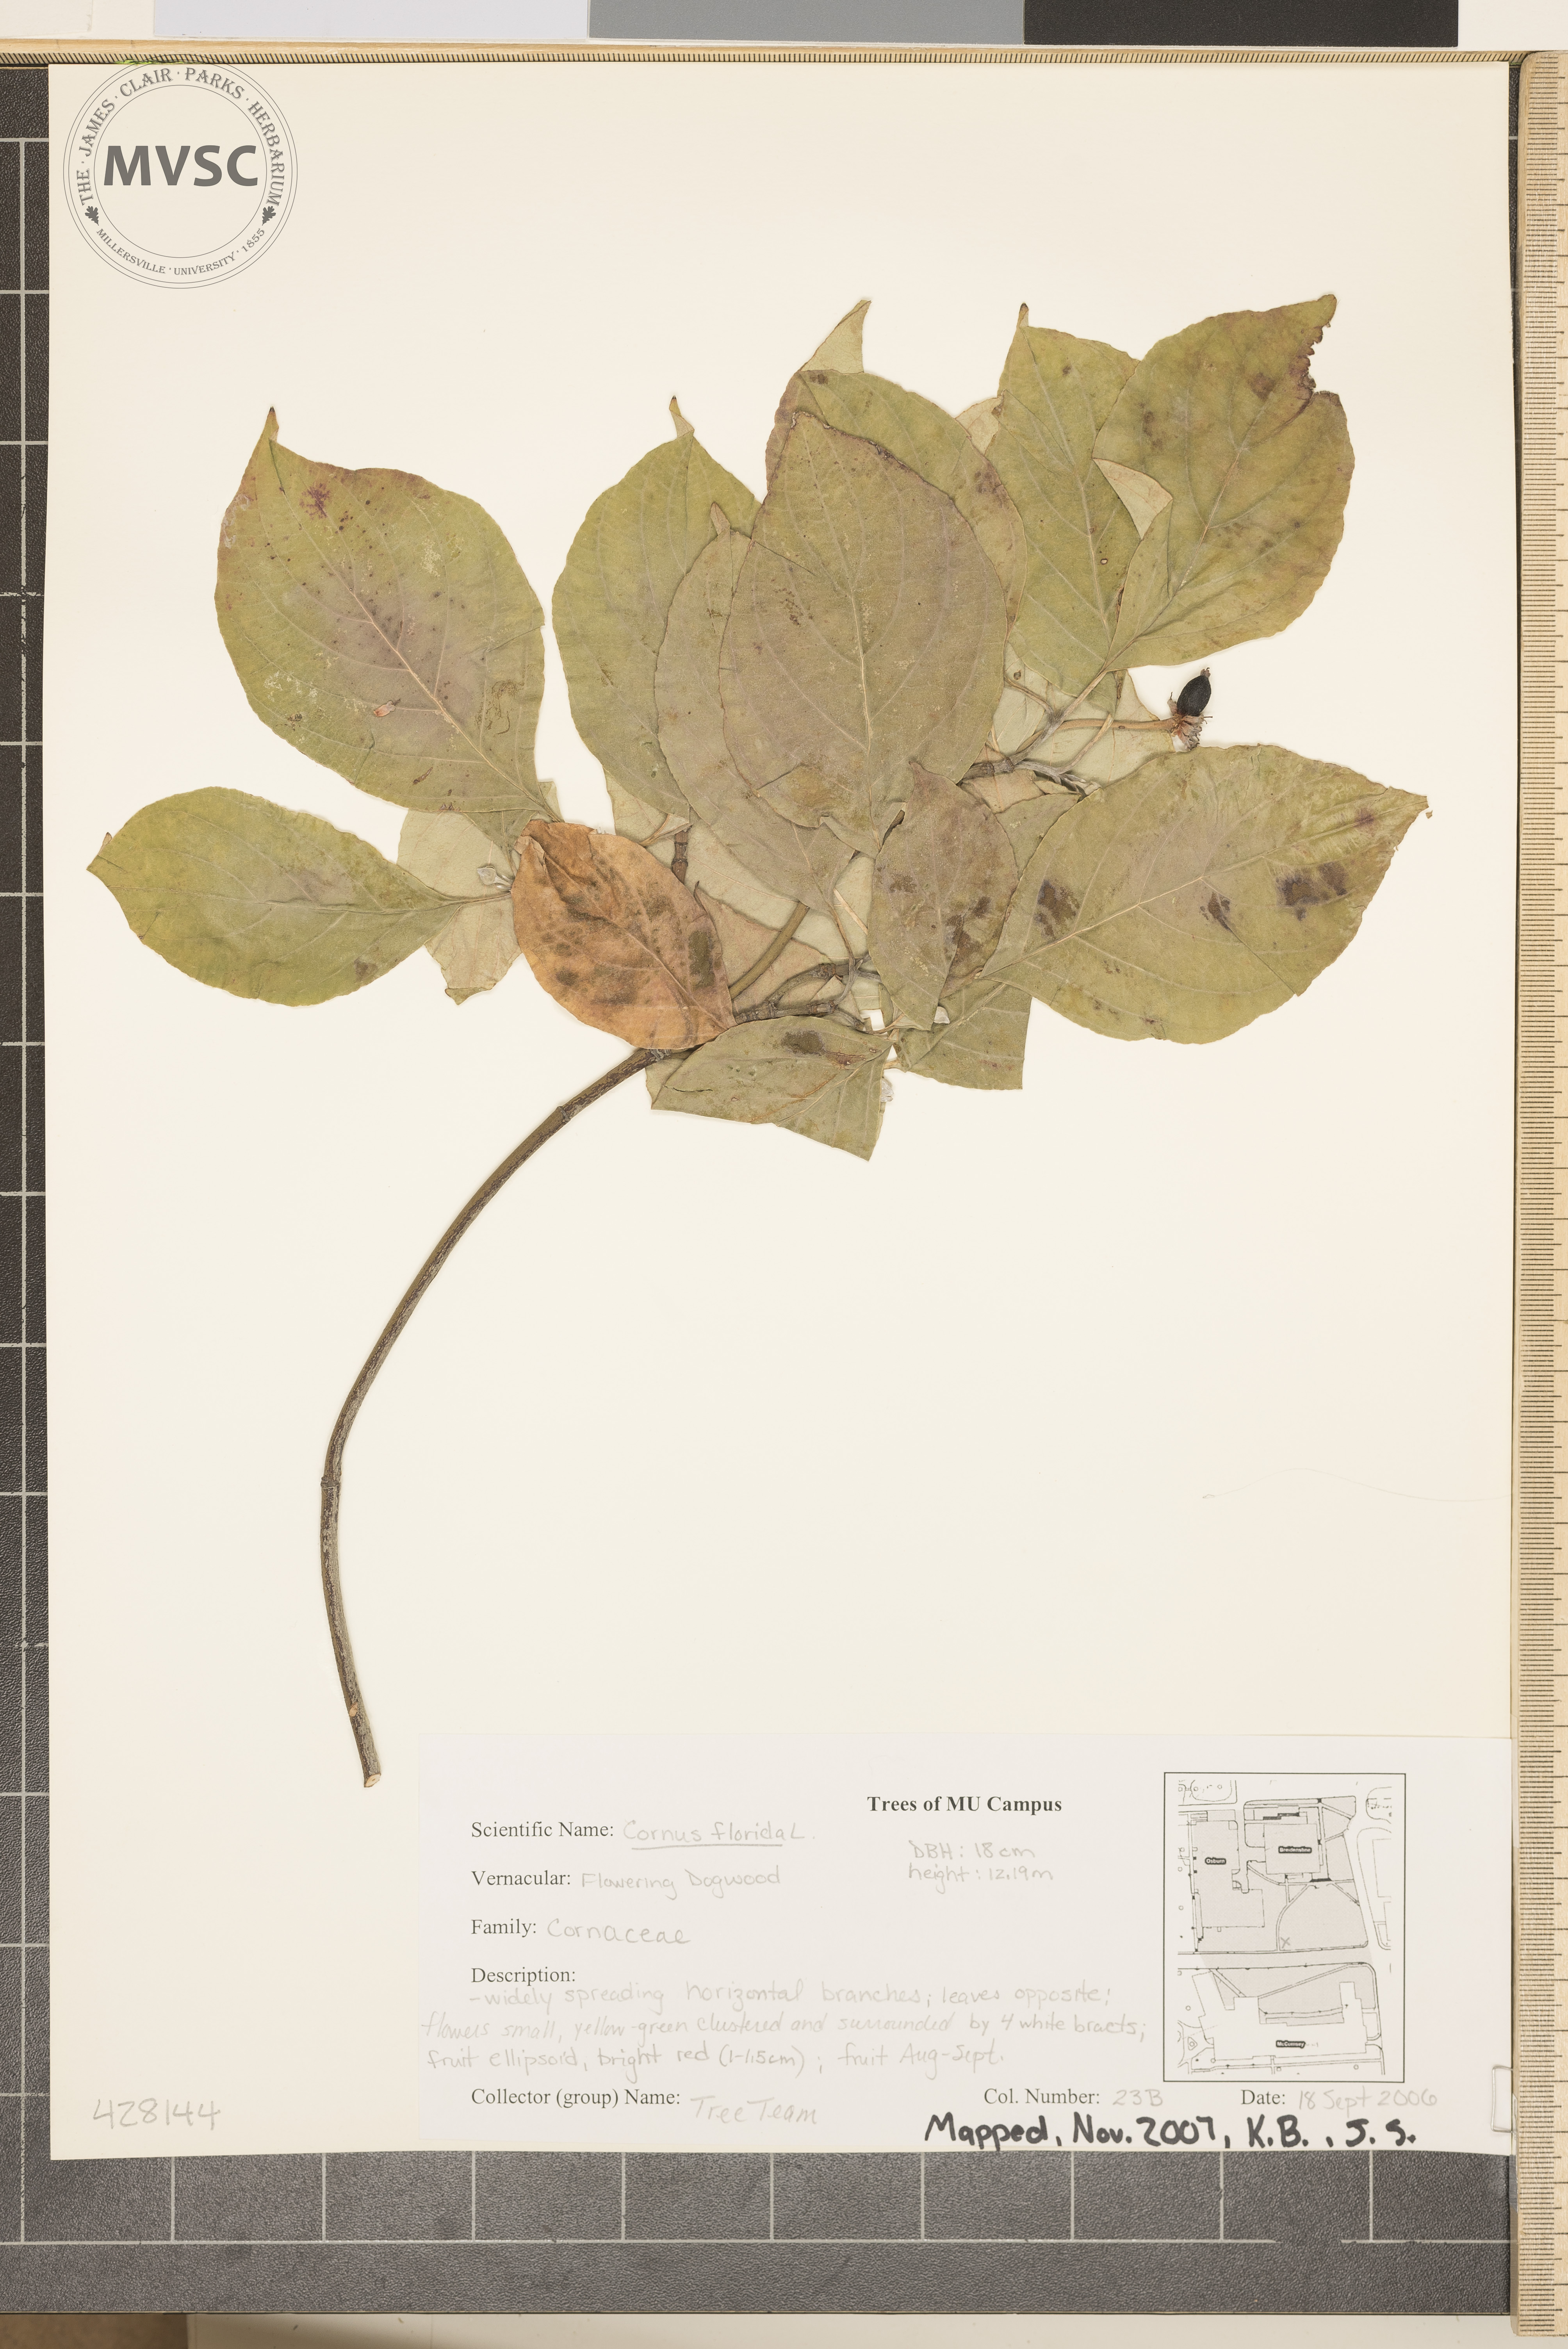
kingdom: Plantae
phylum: Tracheophyta
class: Magnoliopsida
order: Cornales
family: Cornaceae
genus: Cornus
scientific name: Cornus florida
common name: Flowering Dogwood
